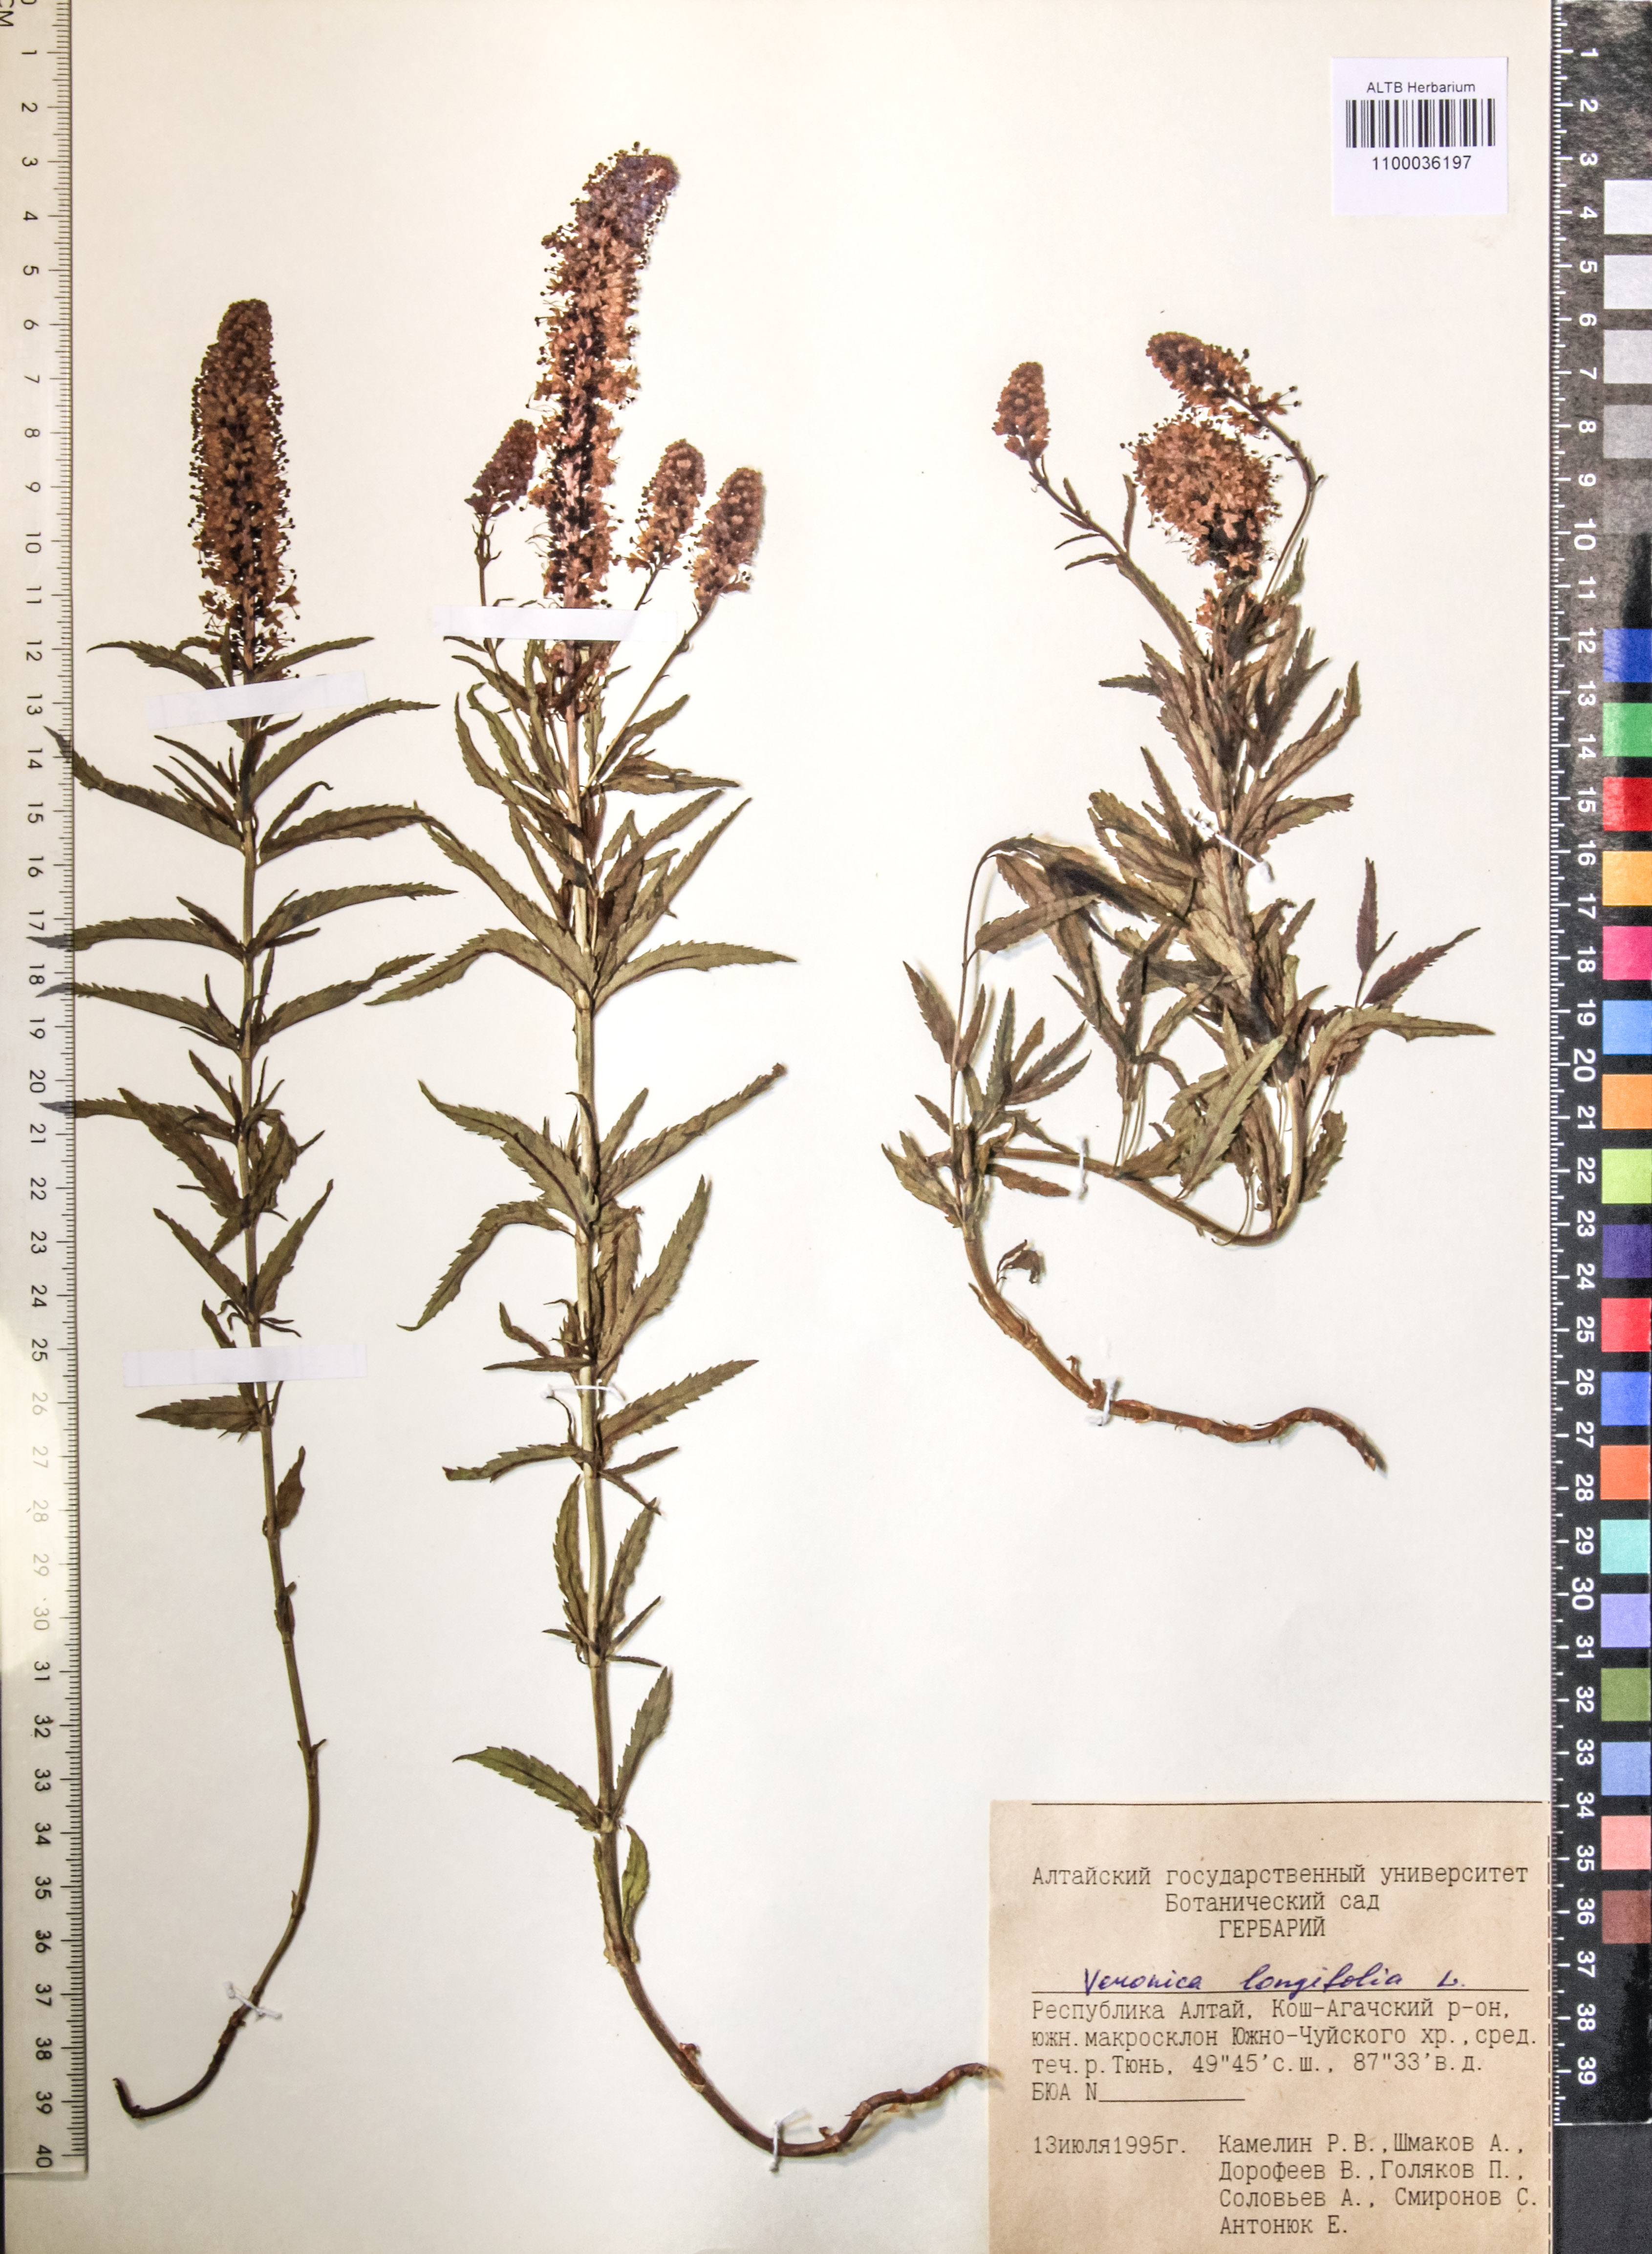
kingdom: Plantae
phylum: Tracheophyta
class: Magnoliopsida
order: Lamiales
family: Plantaginaceae
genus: Veronica
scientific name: Veronica longifolia
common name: Garden speedwell
